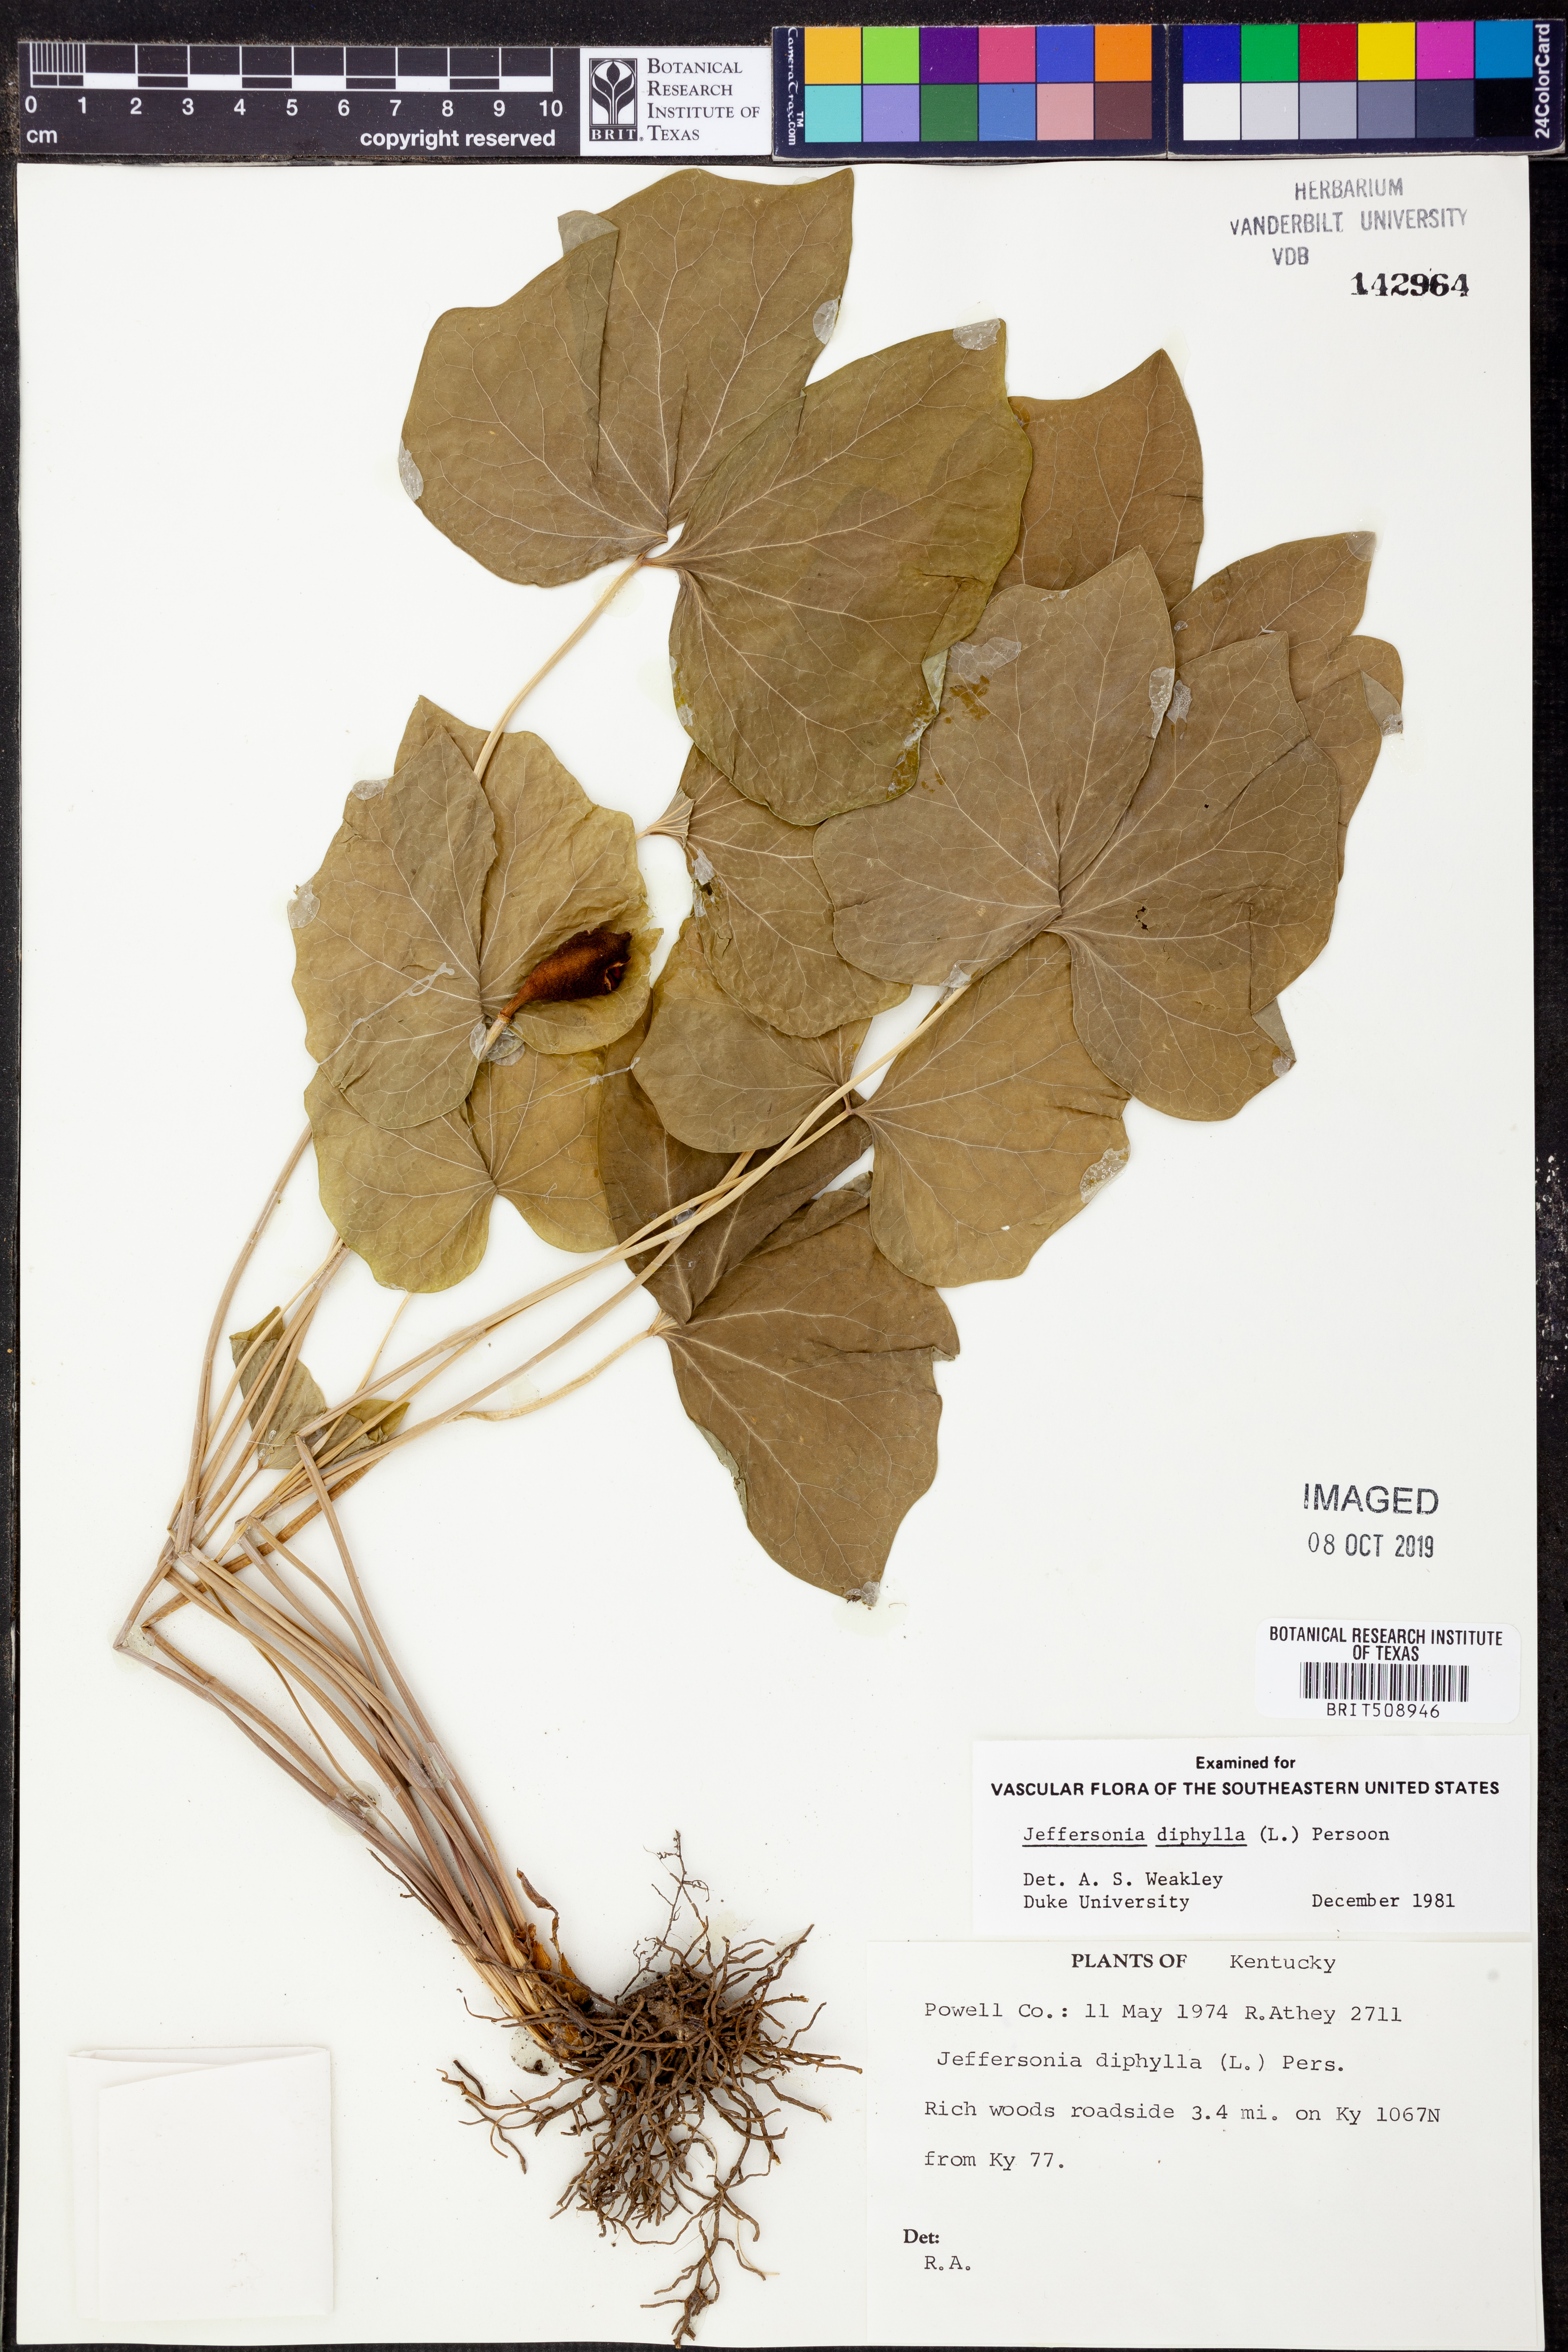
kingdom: Plantae
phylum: Tracheophyta
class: Magnoliopsida
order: Ranunculales
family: Berberidaceae
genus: Jeffersonia
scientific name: Jeffersonia diphylla
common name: Rheumatism-root
